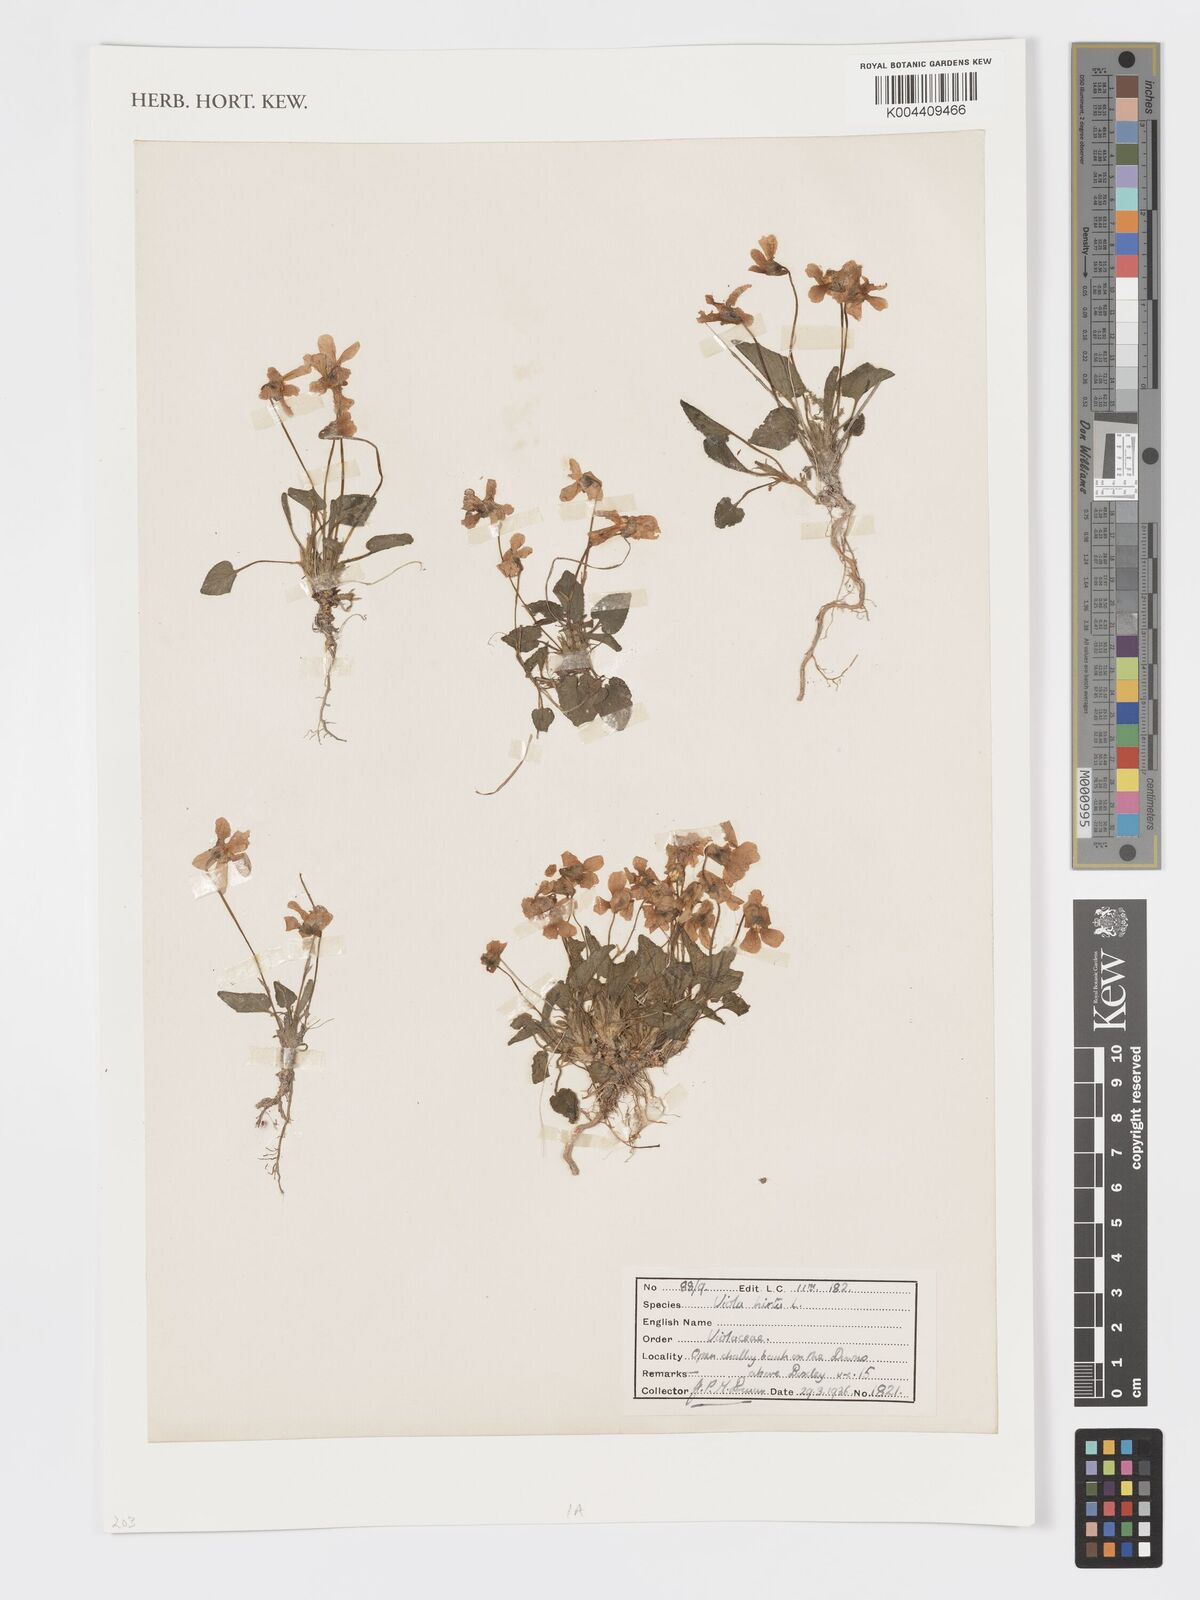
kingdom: Plantae
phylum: Tracheophyta
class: Magnoliopsida
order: Malpighiales
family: Violaceae
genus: Viola
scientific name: Viola
